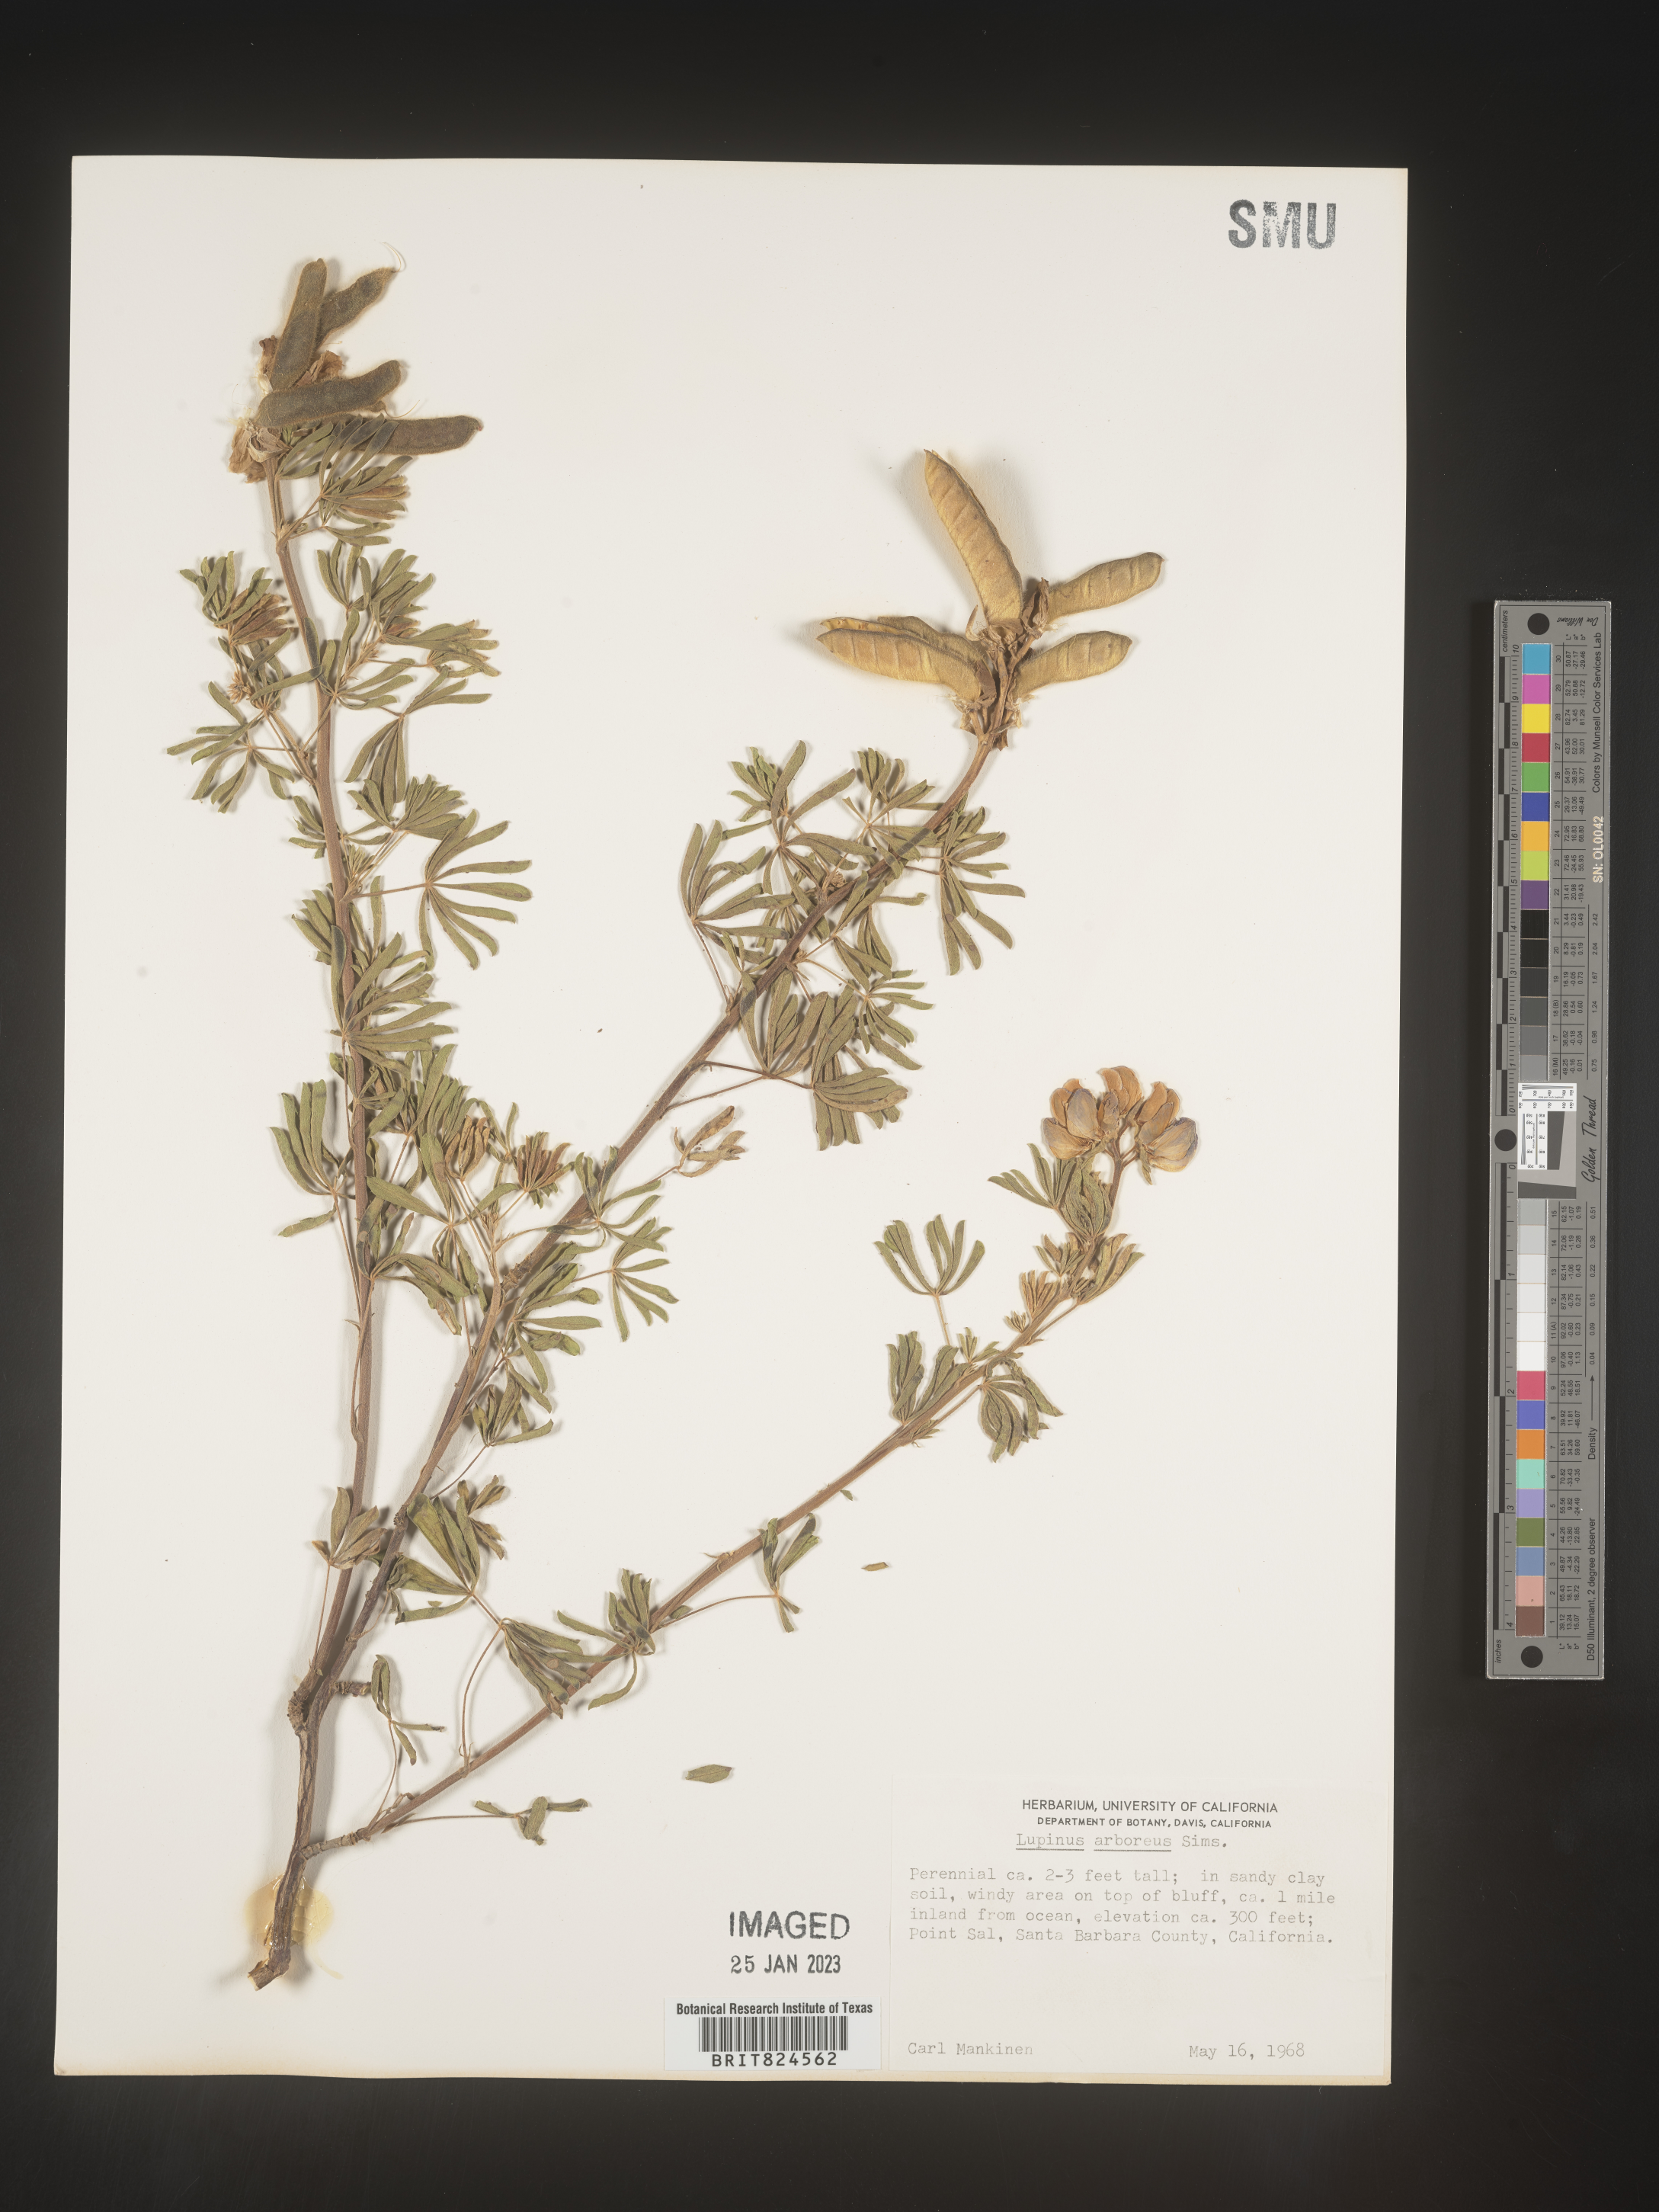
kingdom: Plantae
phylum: Tracheophyta
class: Magnoliopsida
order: Fabales
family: Fabaceae
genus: Lupinus
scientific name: Lupinus arboreus
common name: Yellow bush lupine
